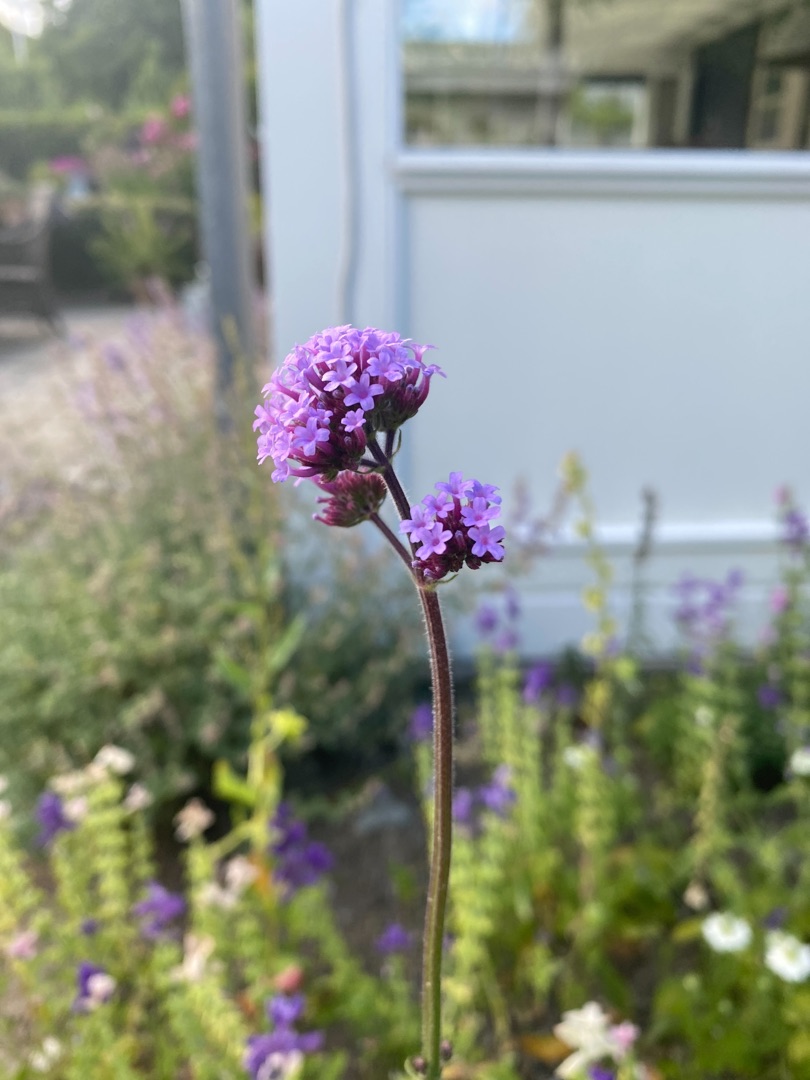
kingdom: Plantae
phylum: Tracheophyta
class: Magnoliopsida
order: Lamiales
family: Verbenaceae
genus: Verbena
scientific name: Verbena bonariensis
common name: Kæmpe-jernurt
